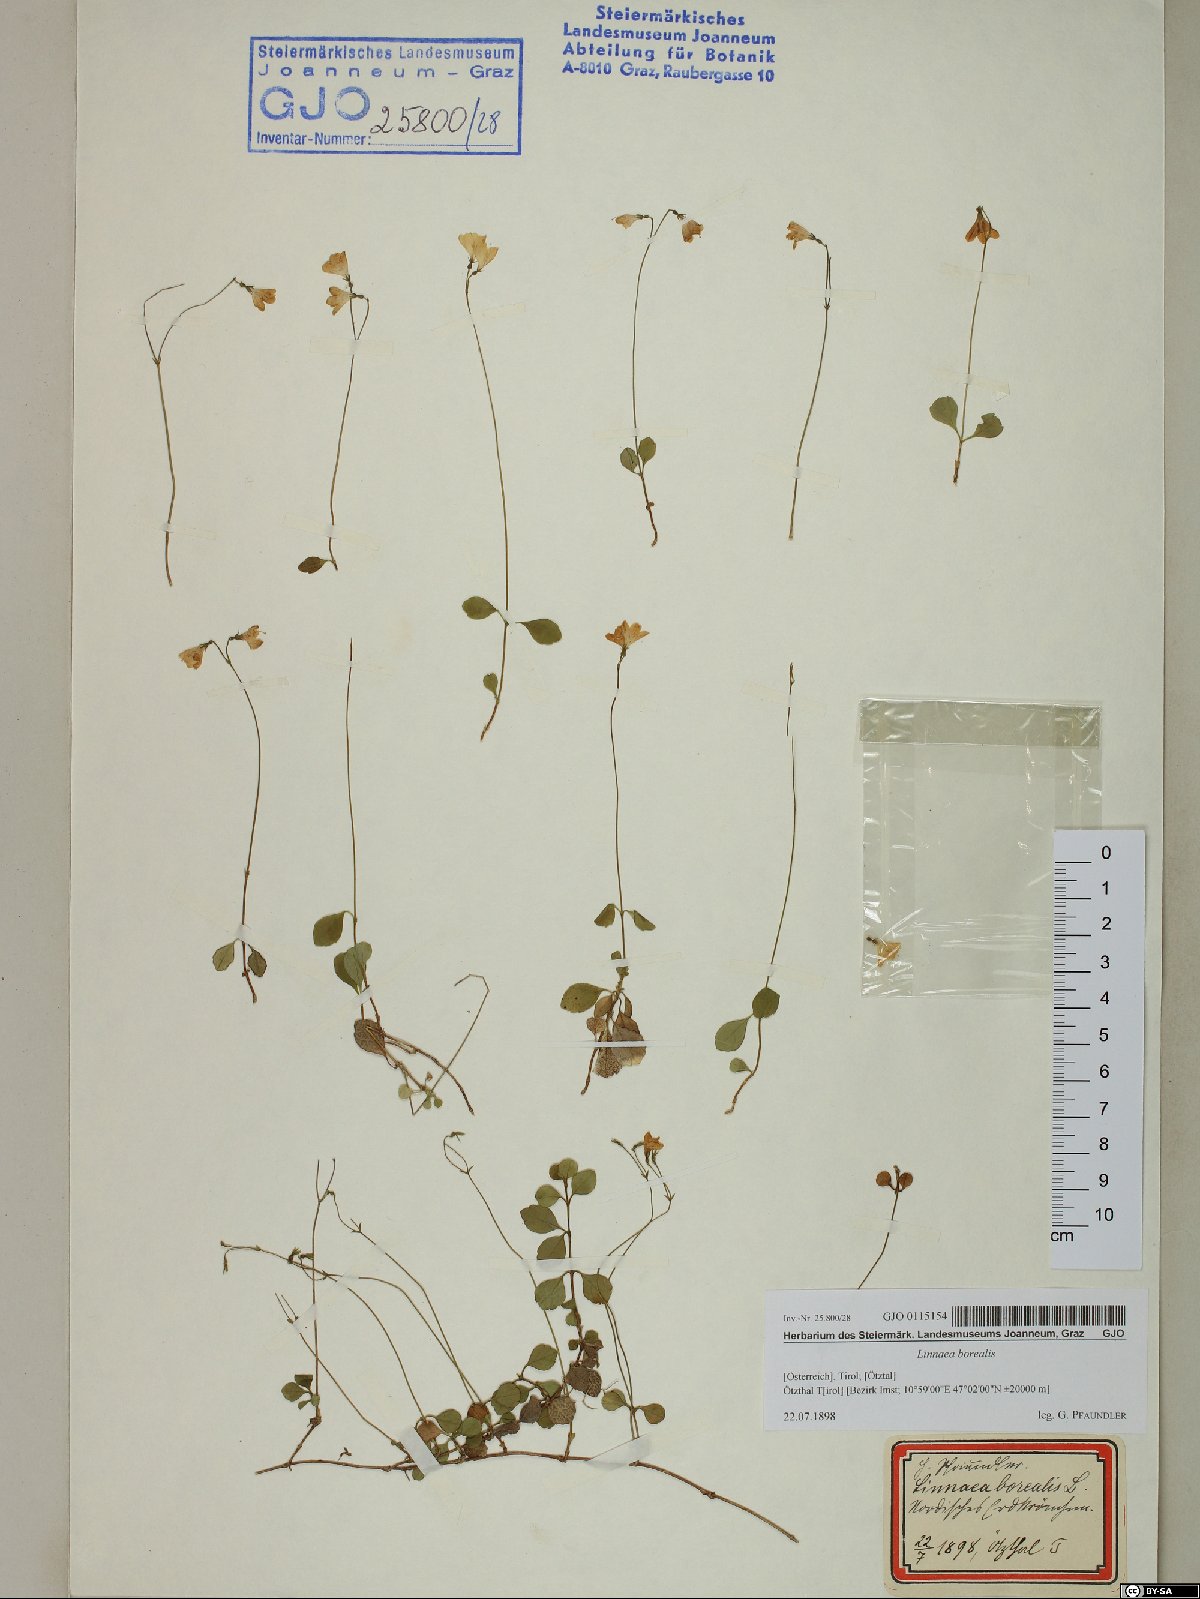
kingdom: Plantae
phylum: Tracheophyta
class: Magnoliopsida
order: Dipsacales
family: Caprifoliaceae
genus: Linnaea
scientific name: Linnaea borealis
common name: Twinflower
